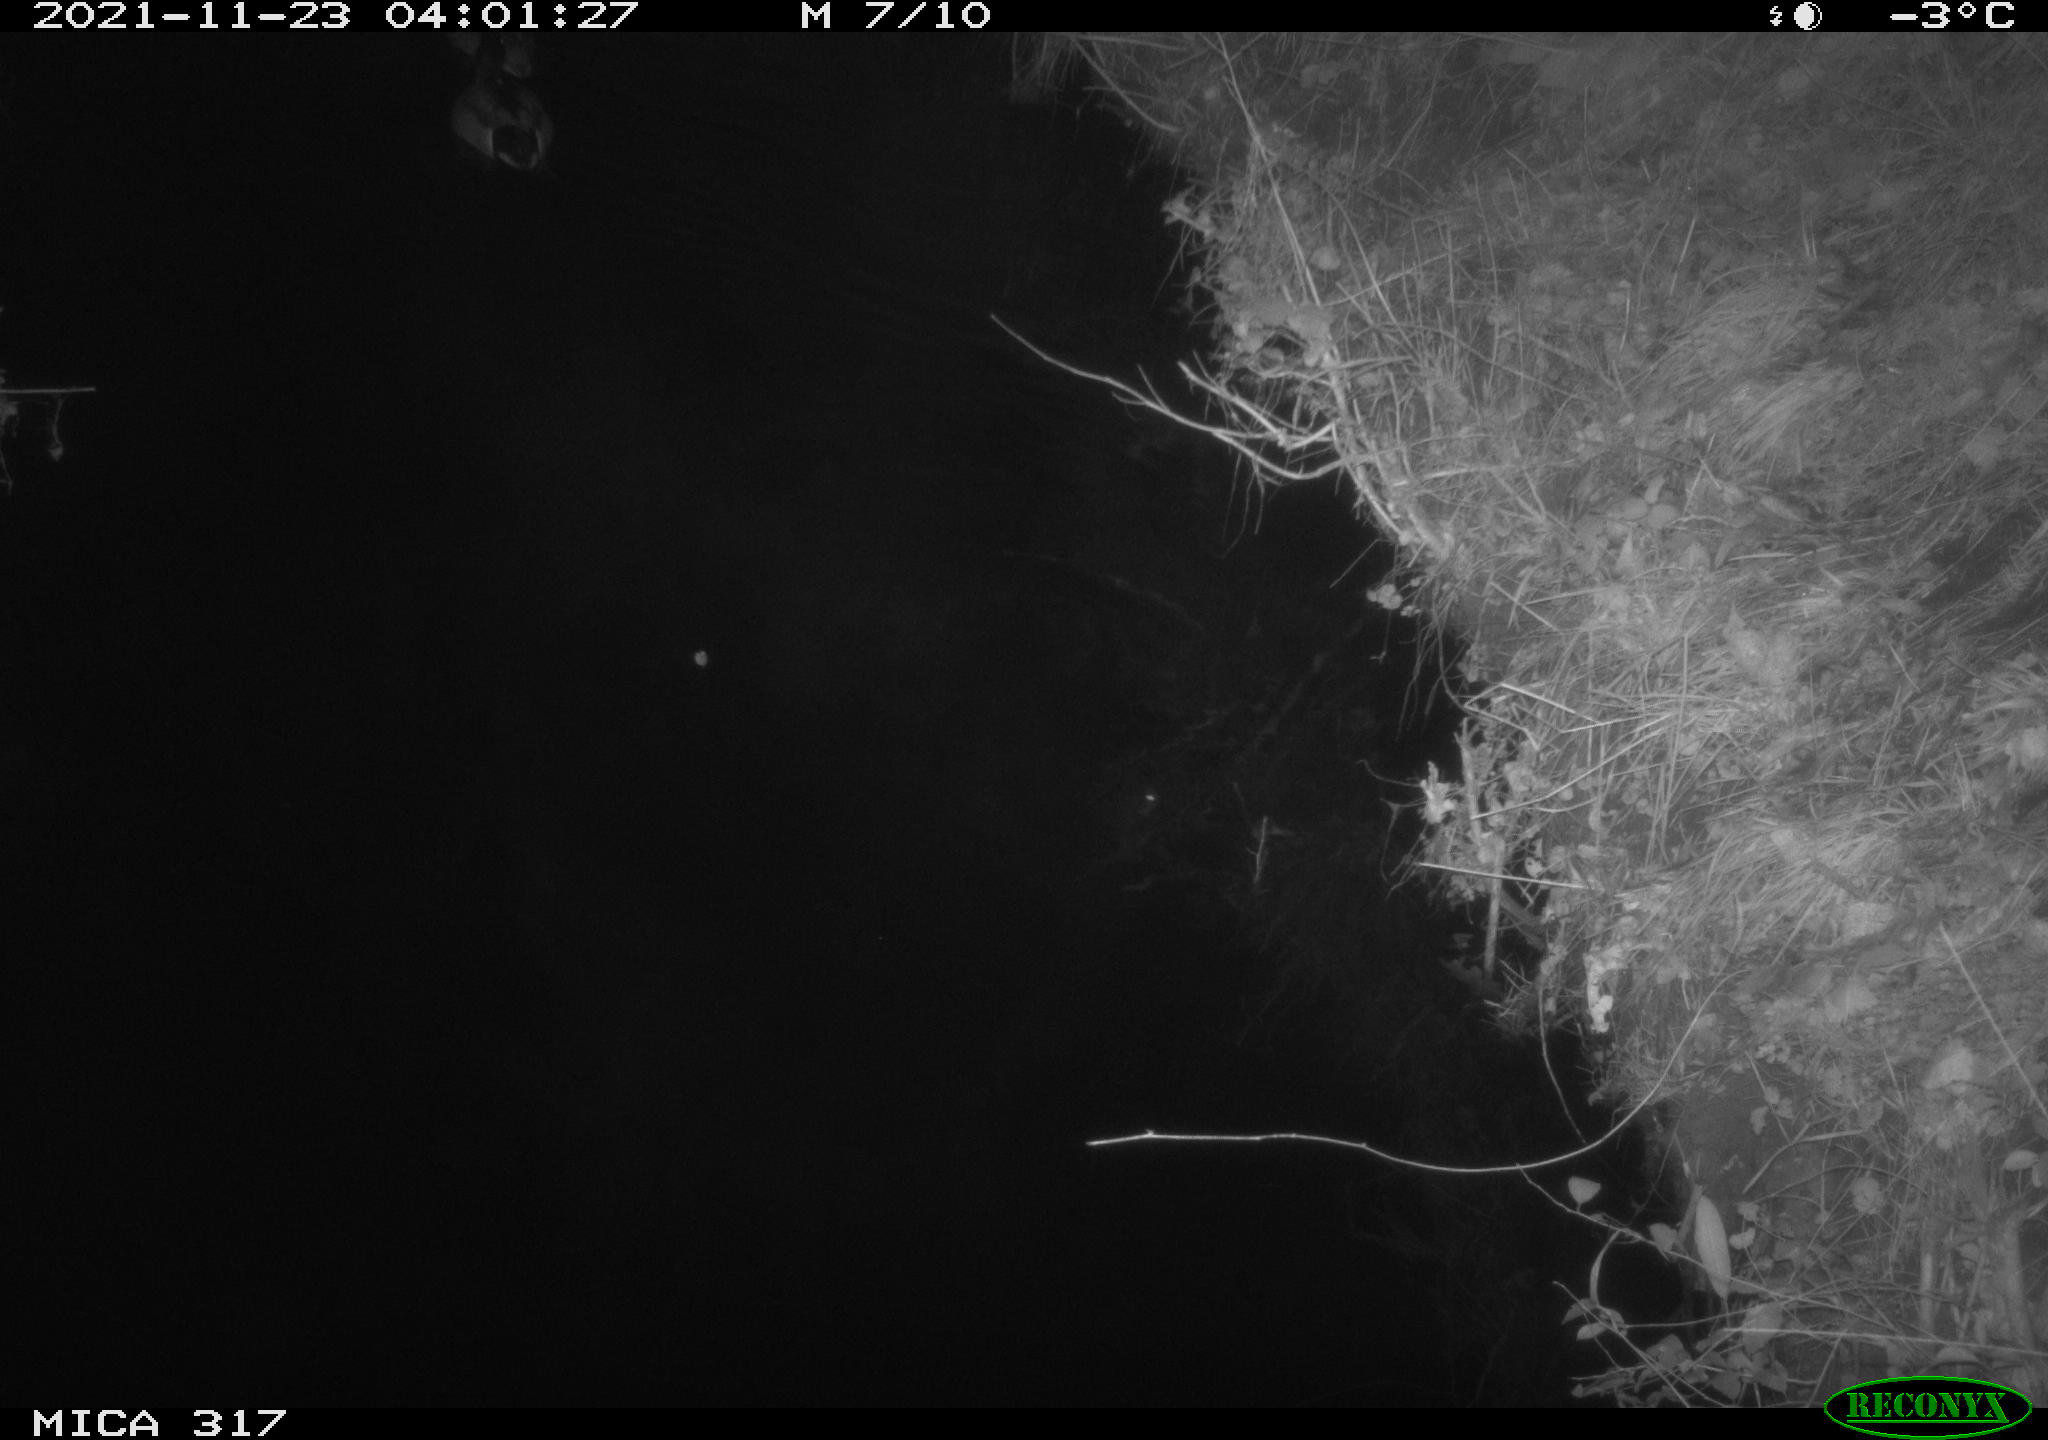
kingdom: Animalia
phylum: Chordata
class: Aves
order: Anseriformes
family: Anatidae
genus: Anas
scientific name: Anas platyrhynchos
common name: Mallard
